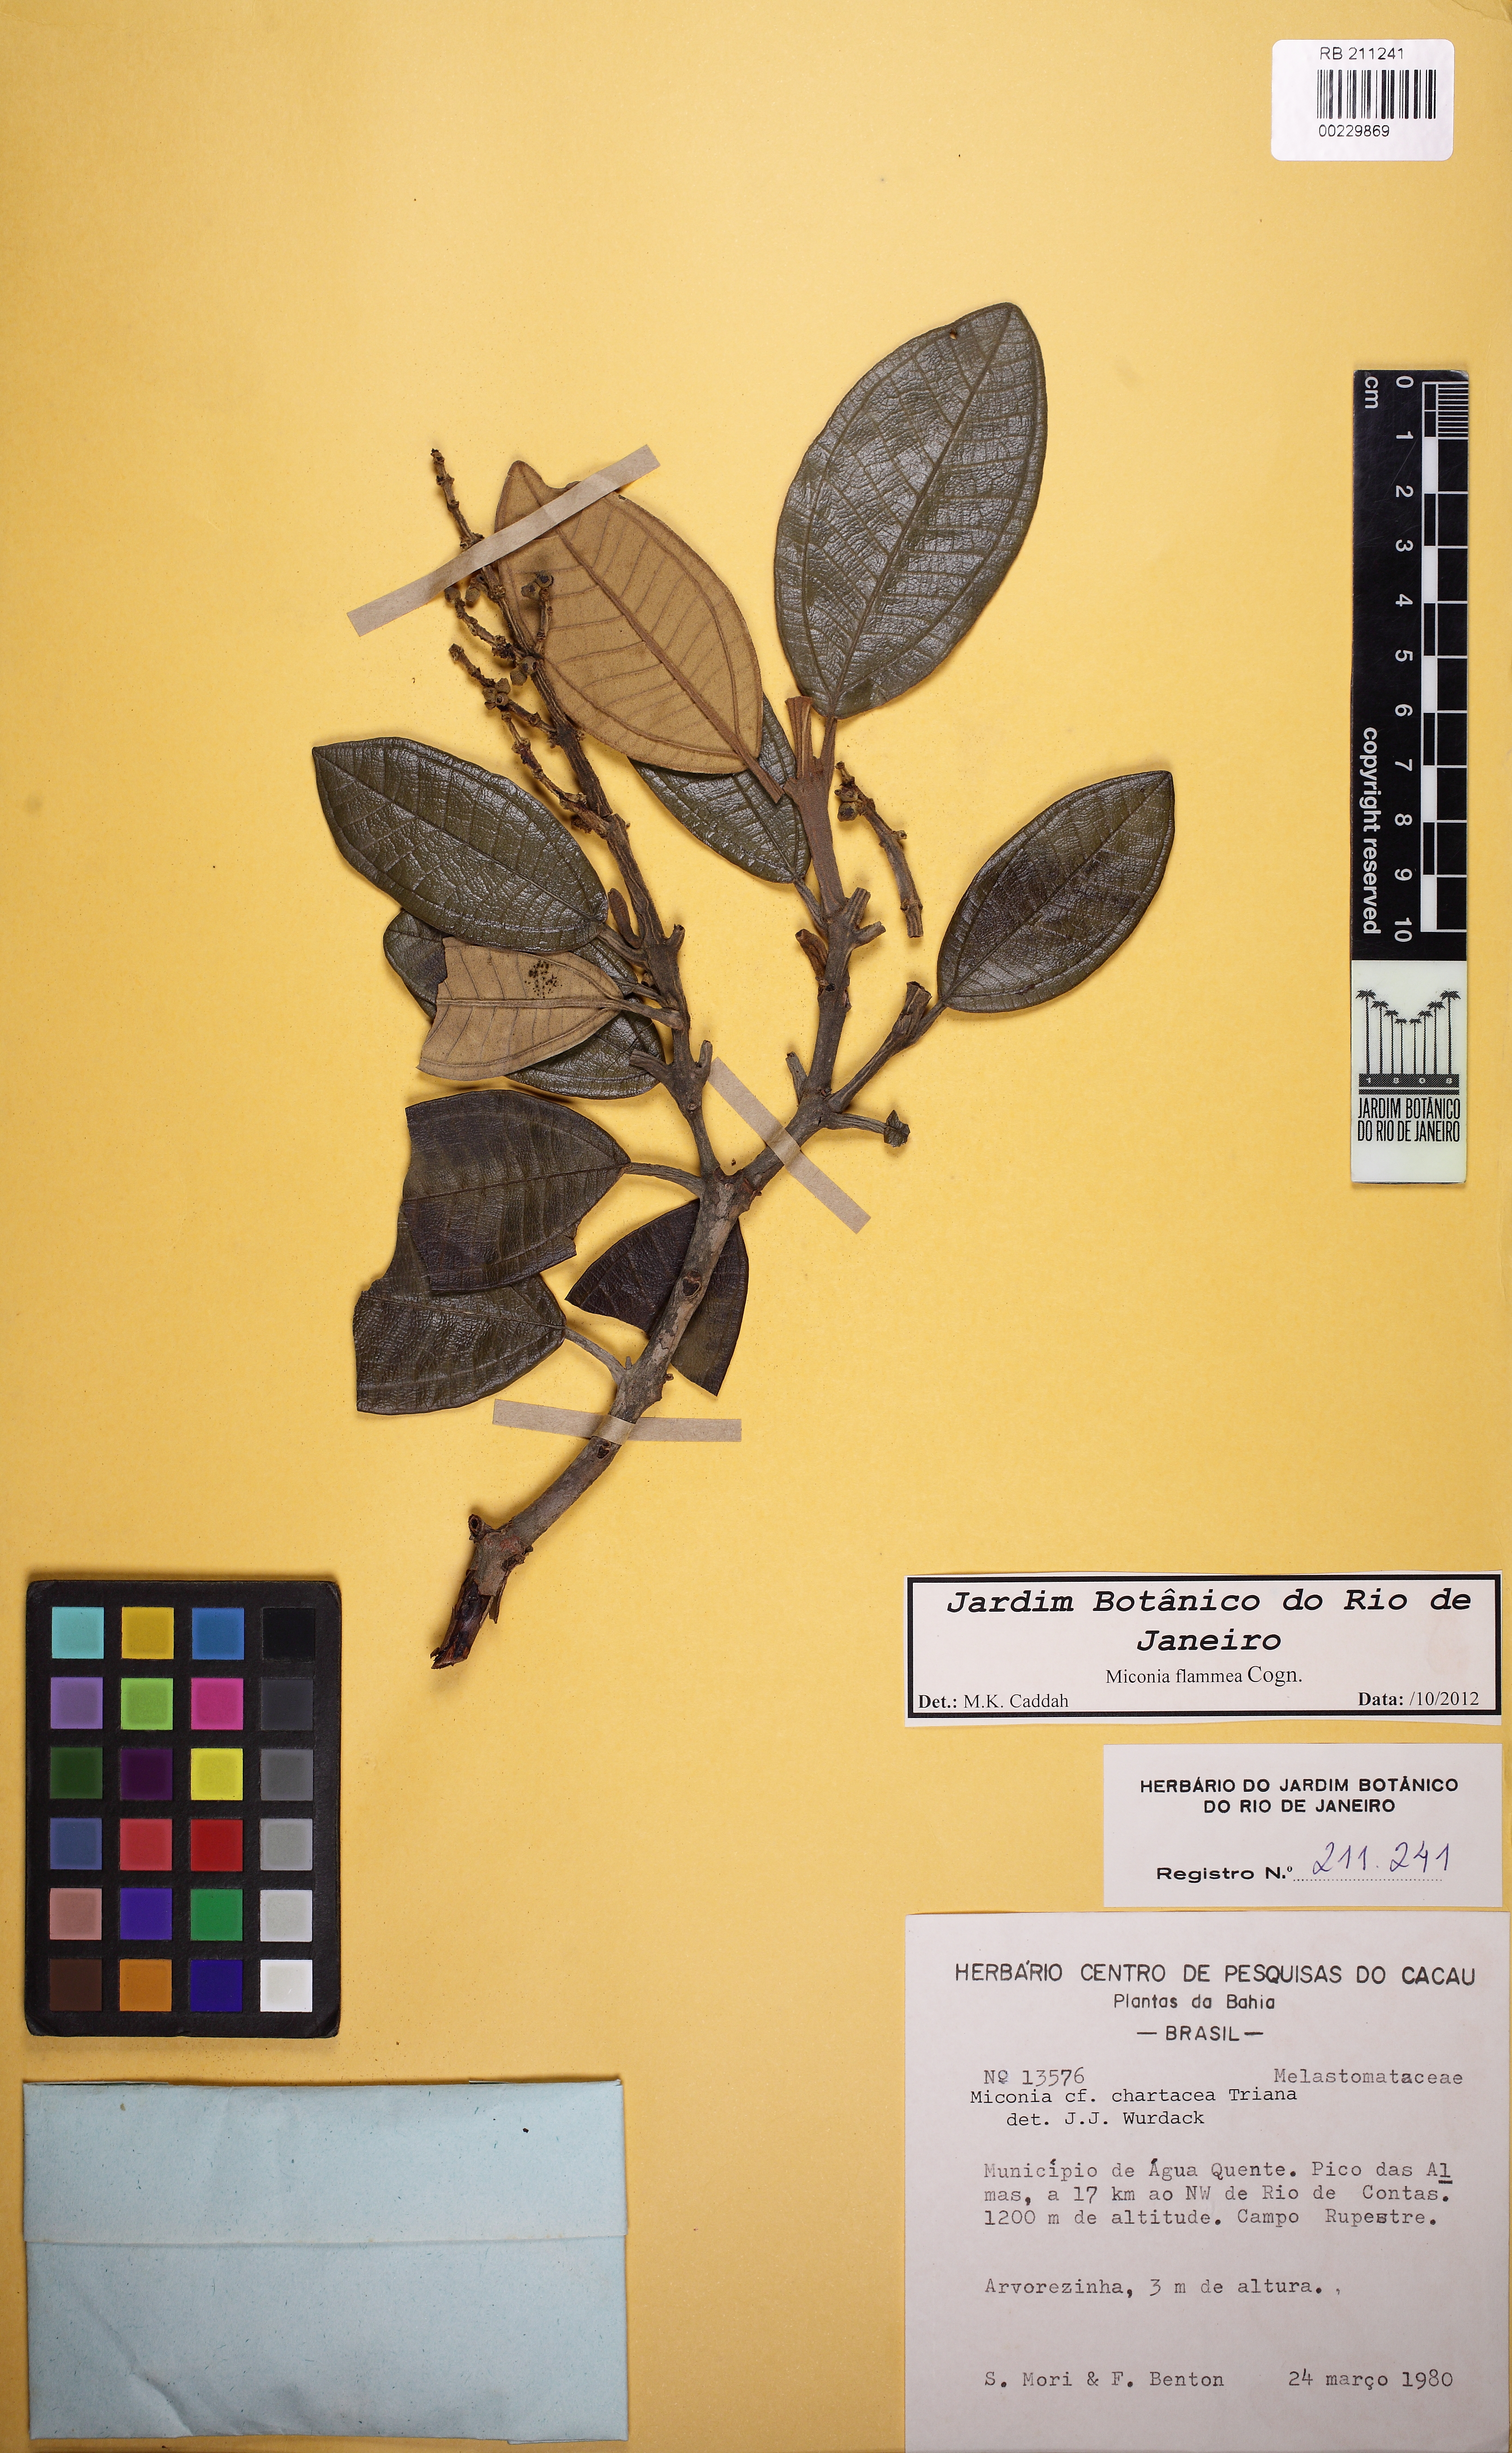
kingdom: Plantae
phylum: Tracheophyta
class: Magnoliopsida
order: Myrtales
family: Melastomataceae
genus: Miconia
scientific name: Miconia flammea
